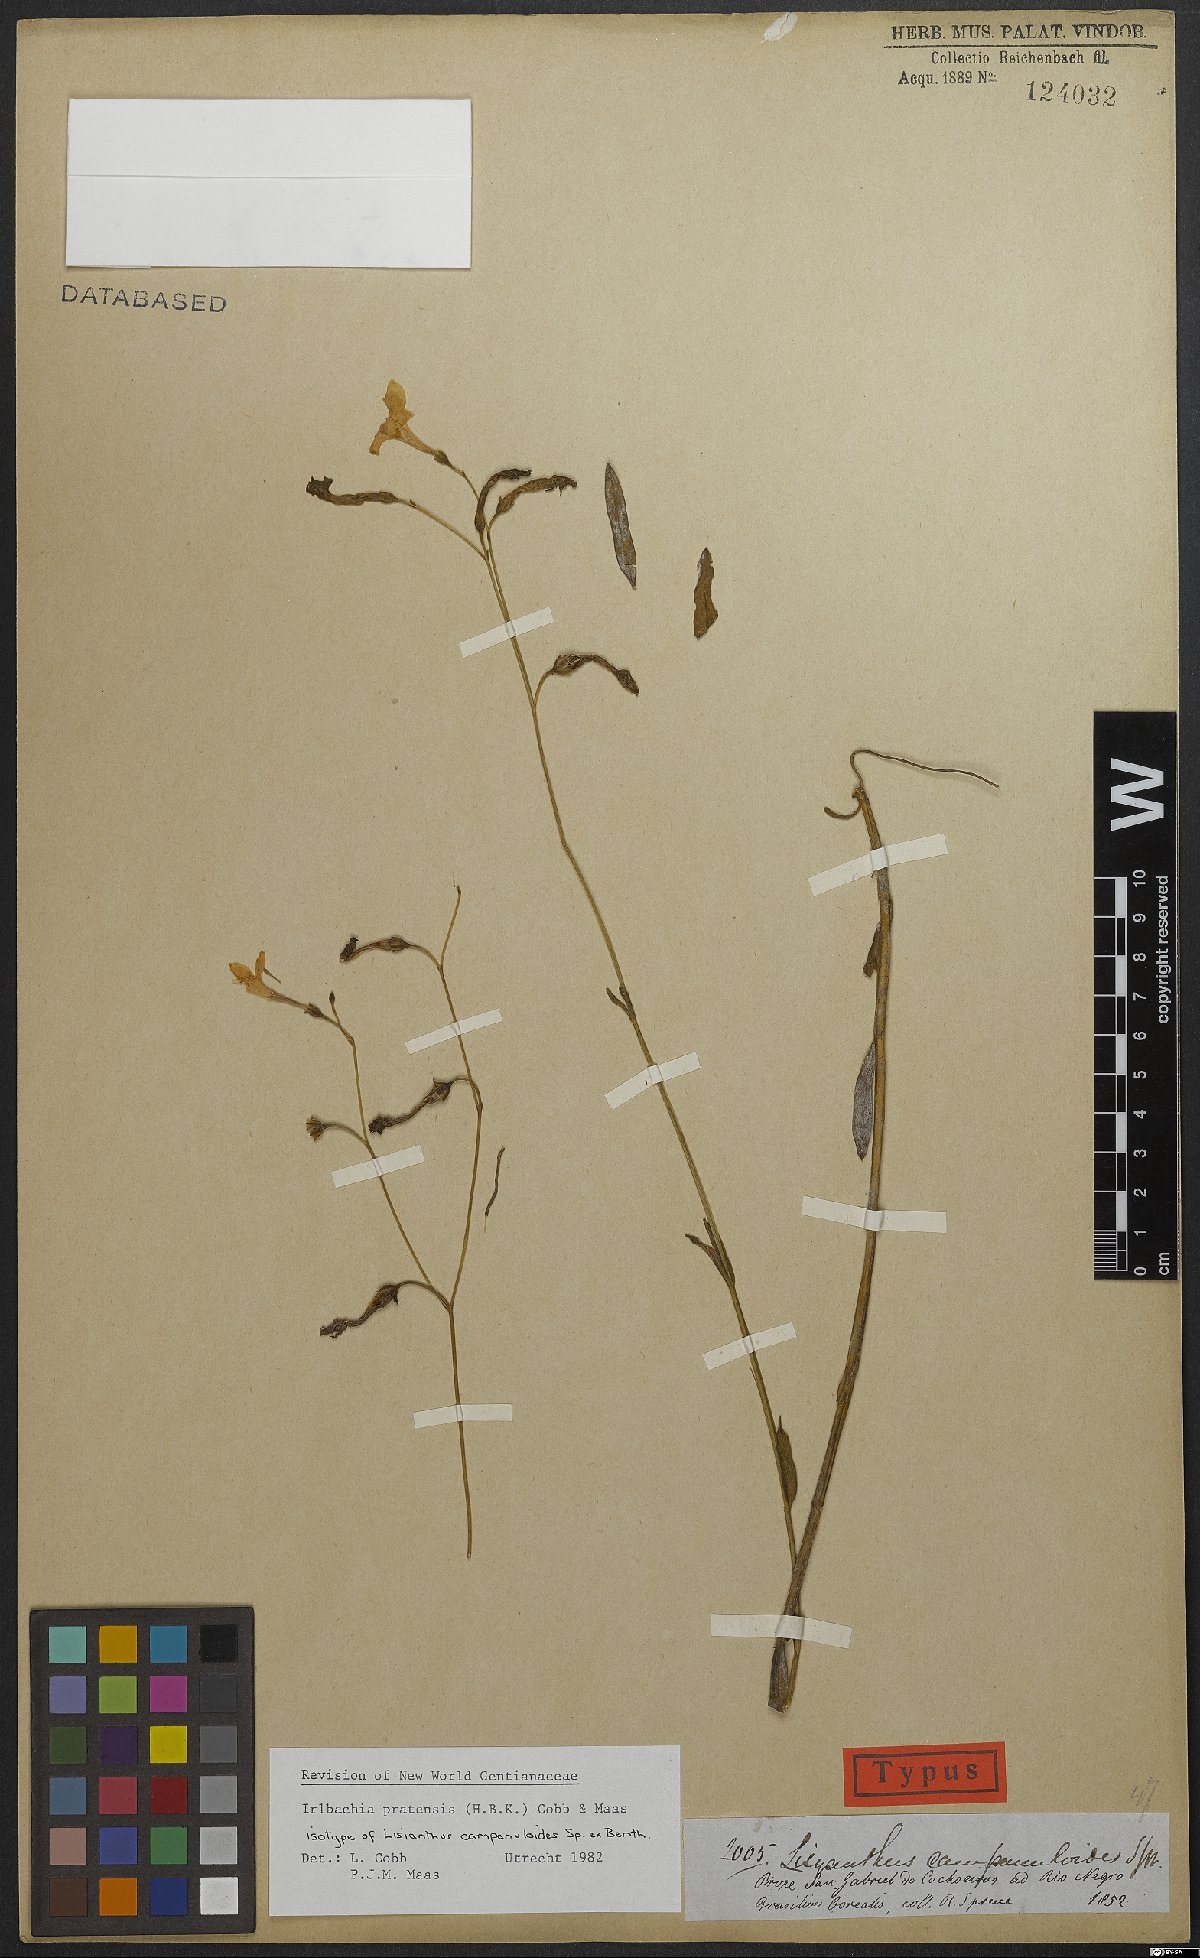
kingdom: Plantae
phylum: Tracheophyta
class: Magnoliopsida
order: Gentianales
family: Gentianaceae
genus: Irlbachia
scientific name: Irlbachia poeppigii
